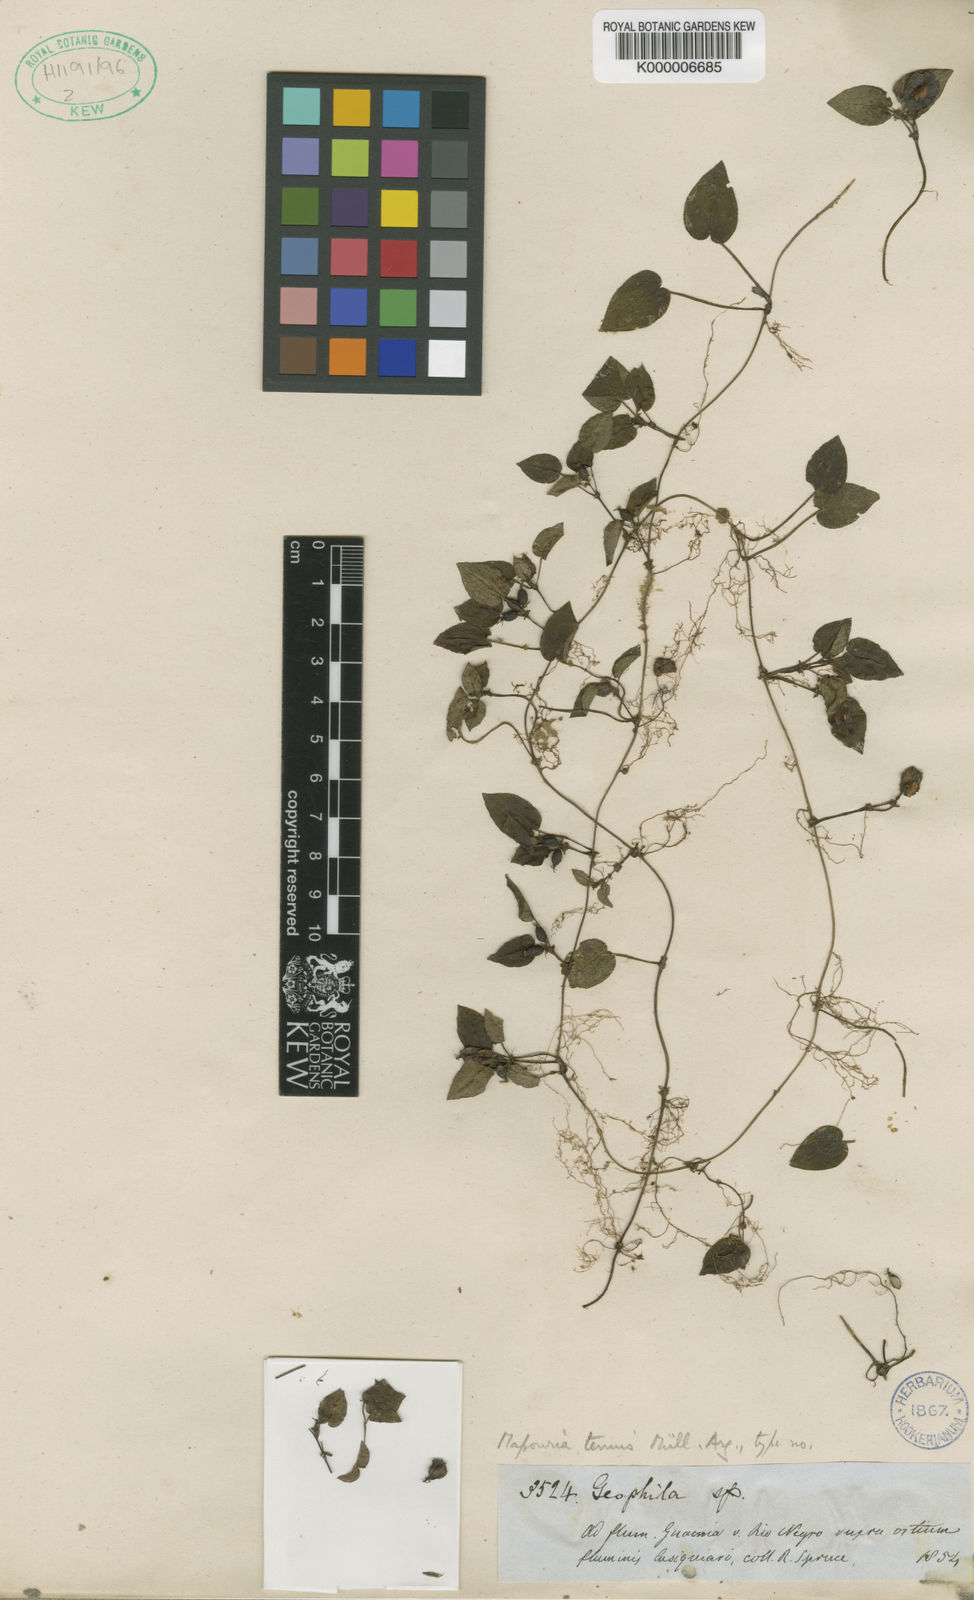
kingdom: Plantae
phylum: Tracheophyta
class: Magnoliopsida
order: Gentianales
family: Rubiaceae
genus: Geophila
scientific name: Geophila
